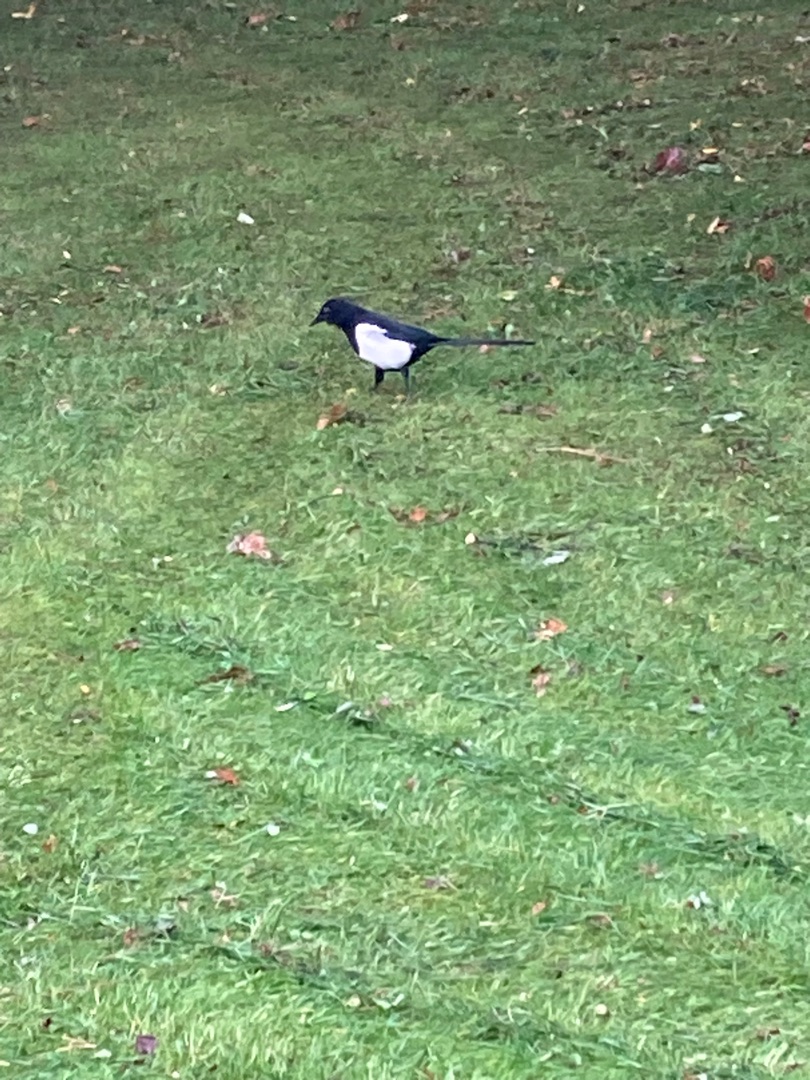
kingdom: Animalia
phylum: Chordata
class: Aves
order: Passeriformes
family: Corvidae
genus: Pica
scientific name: Pica pica
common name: Husskade
